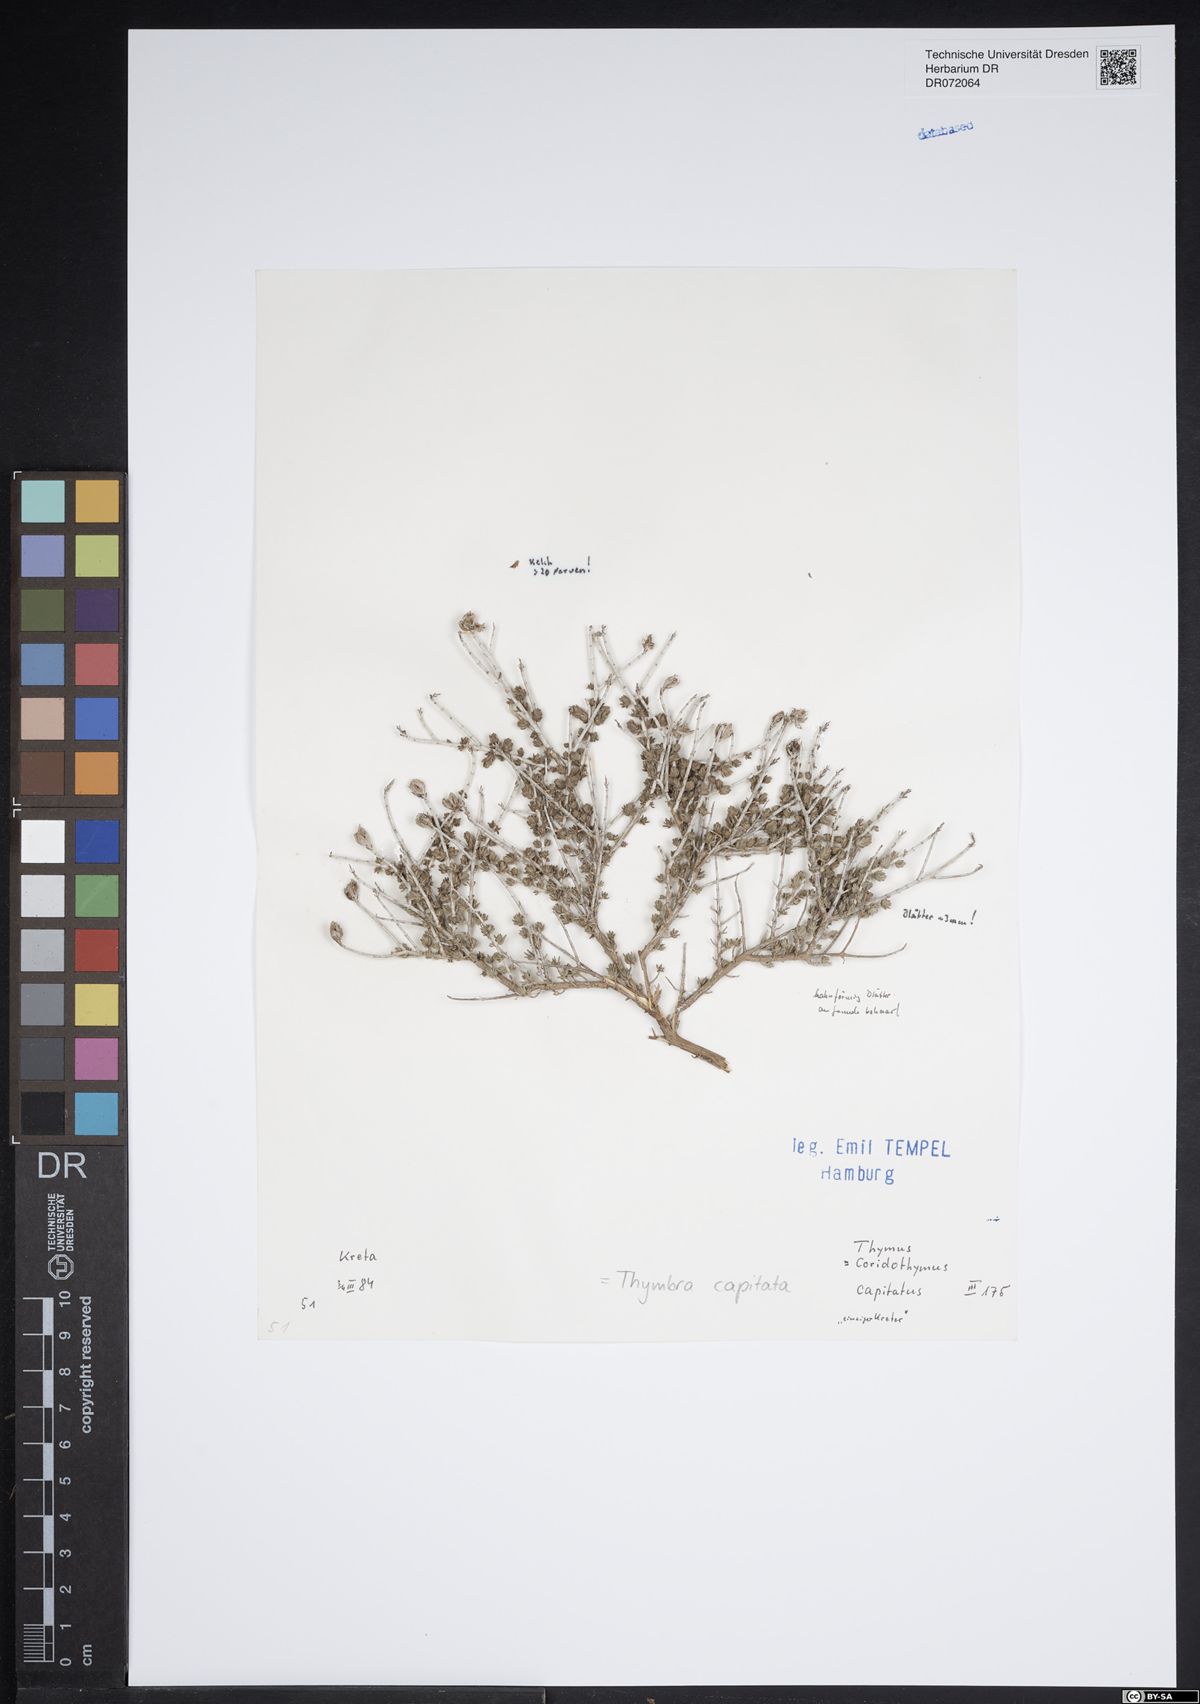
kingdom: Plantae
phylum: Tracheophyta
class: Magnoliopsida
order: Lamiales
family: Lamiaceae
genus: Thymbra
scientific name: Thymbra capitata
